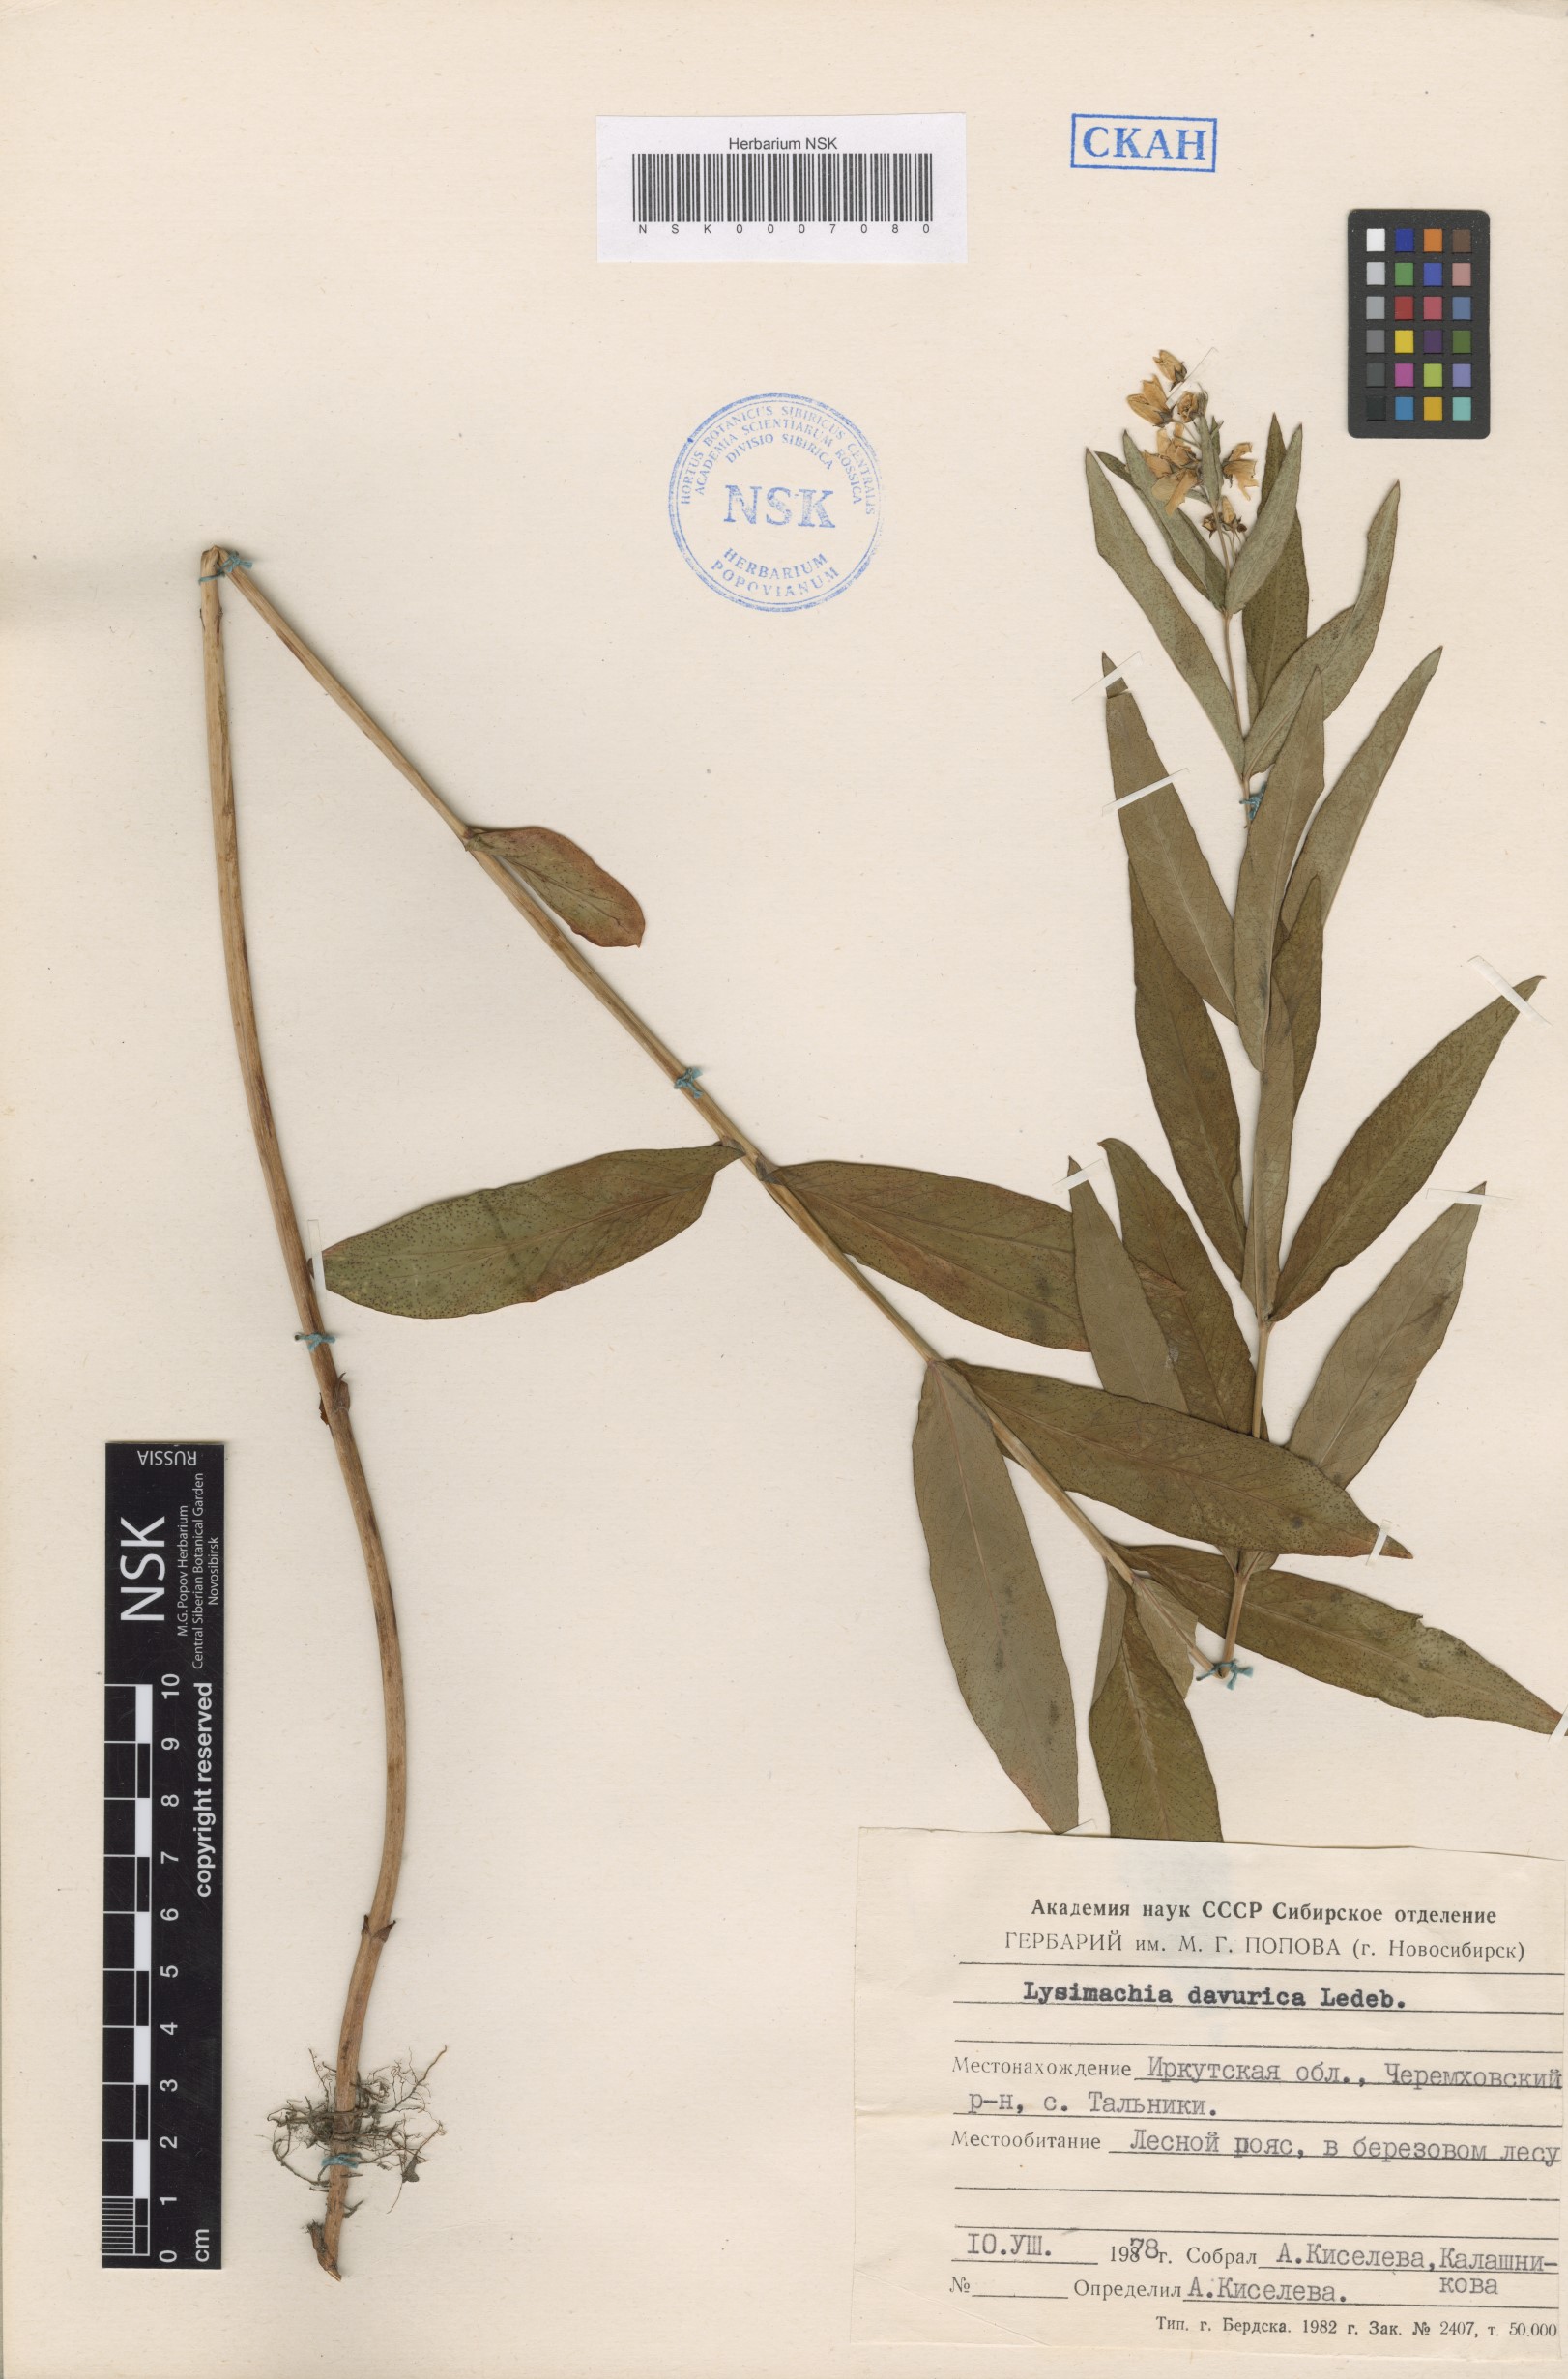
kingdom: Plantae
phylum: Tracheophyta
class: Magnoliopsida
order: Ericales
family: Primulaceae
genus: Lysimachia
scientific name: Lysimachia davurica
